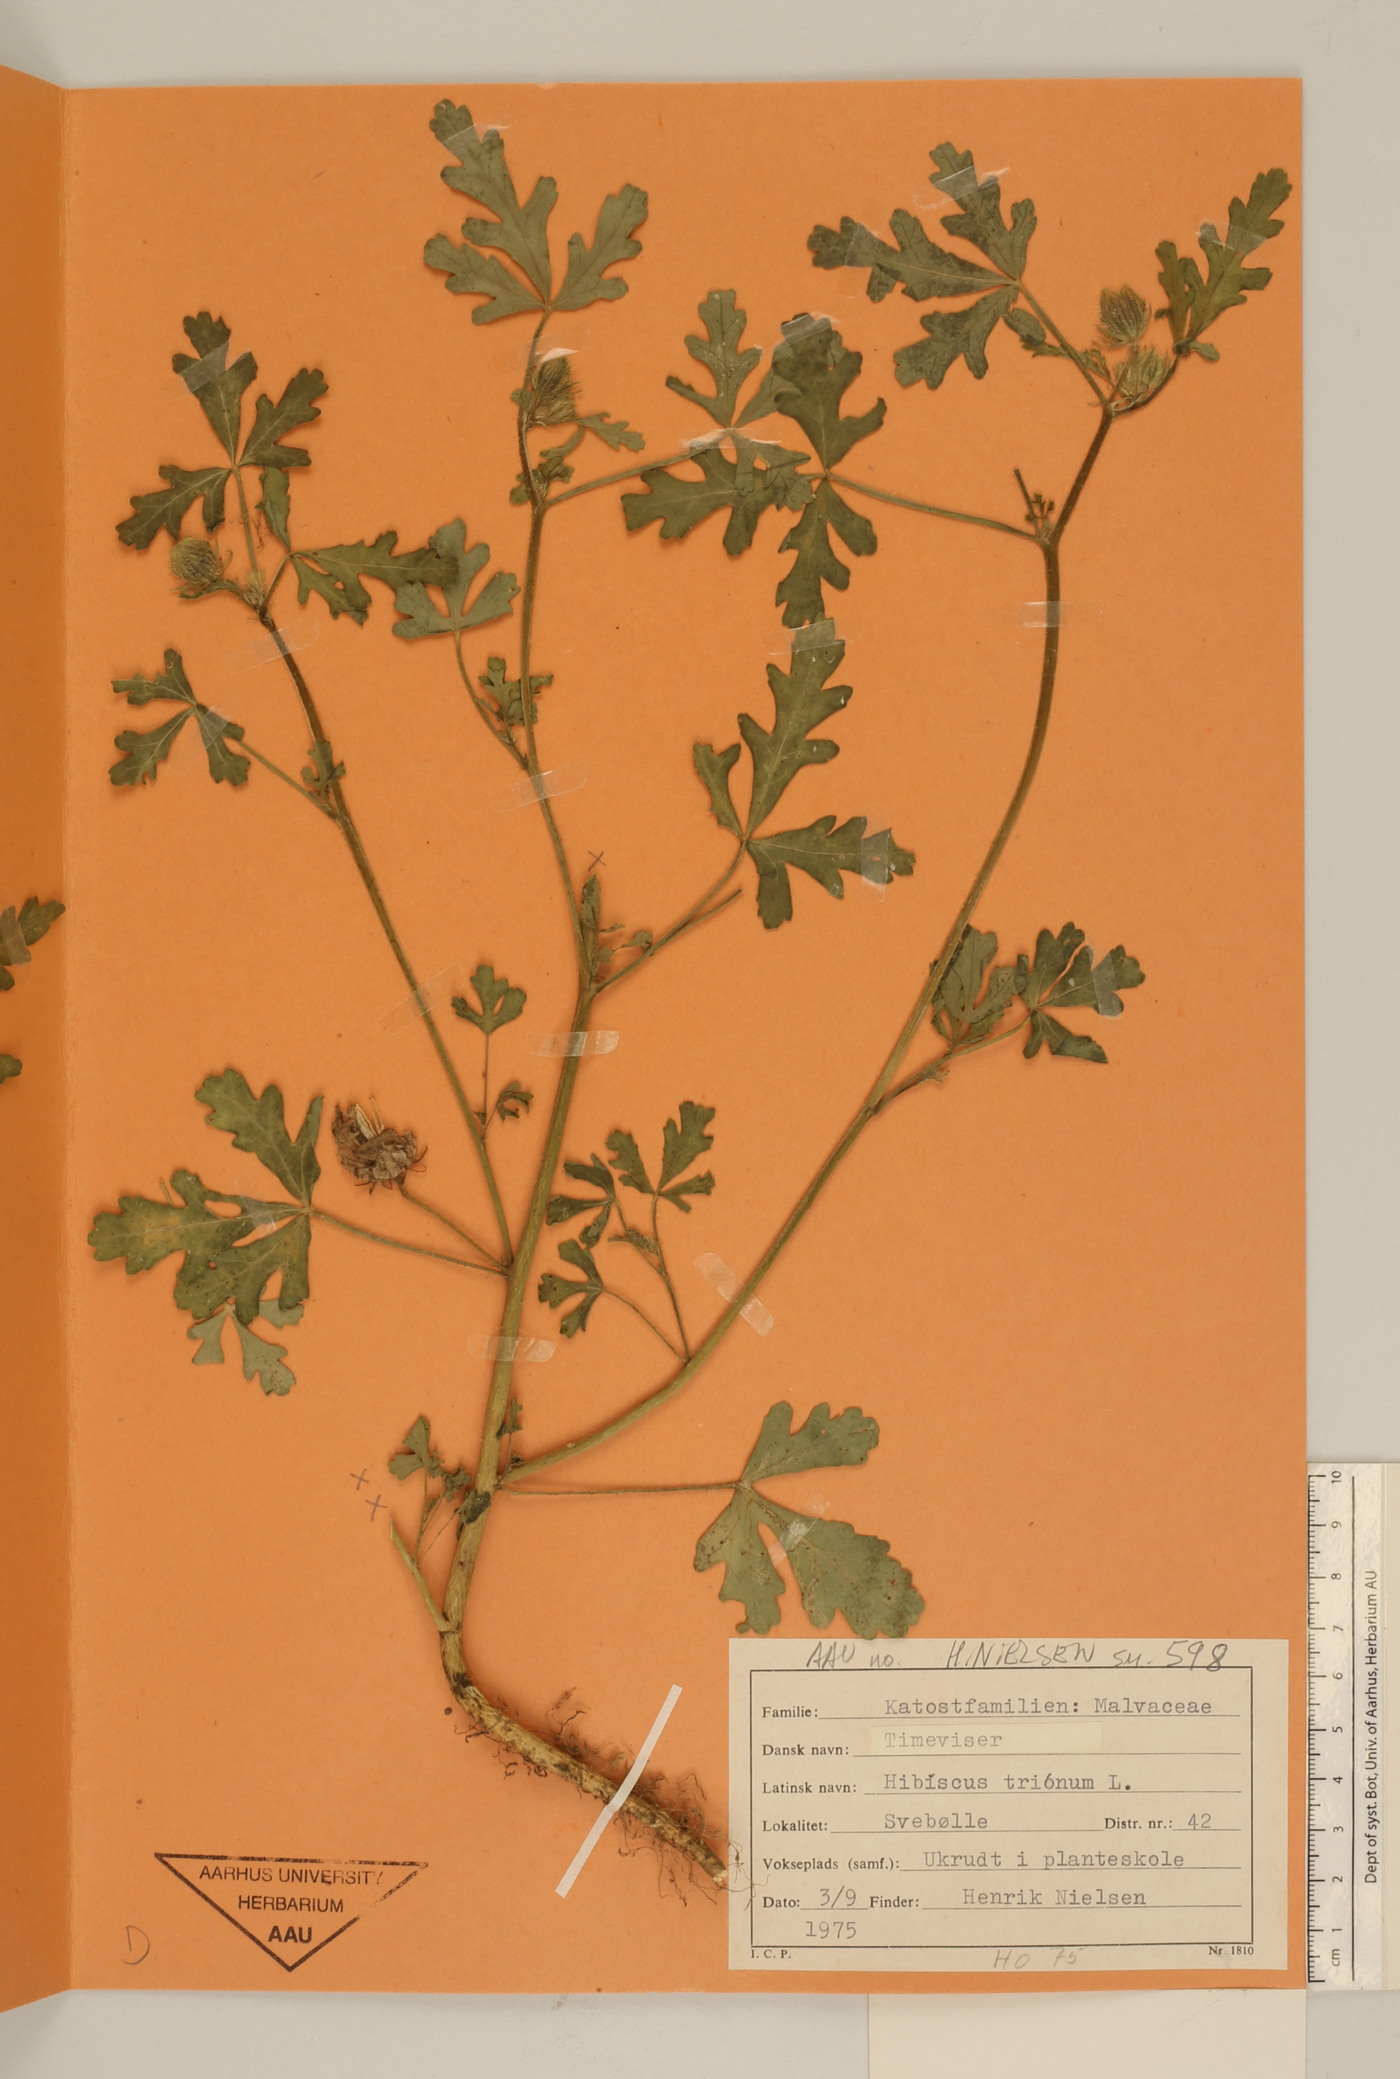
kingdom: Plantae
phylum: Tracheophyta
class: Magnoliopsida
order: Malvales
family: Malvaceae
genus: Hibiscus
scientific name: Hibiscus trionum
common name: Bladder ketmia
